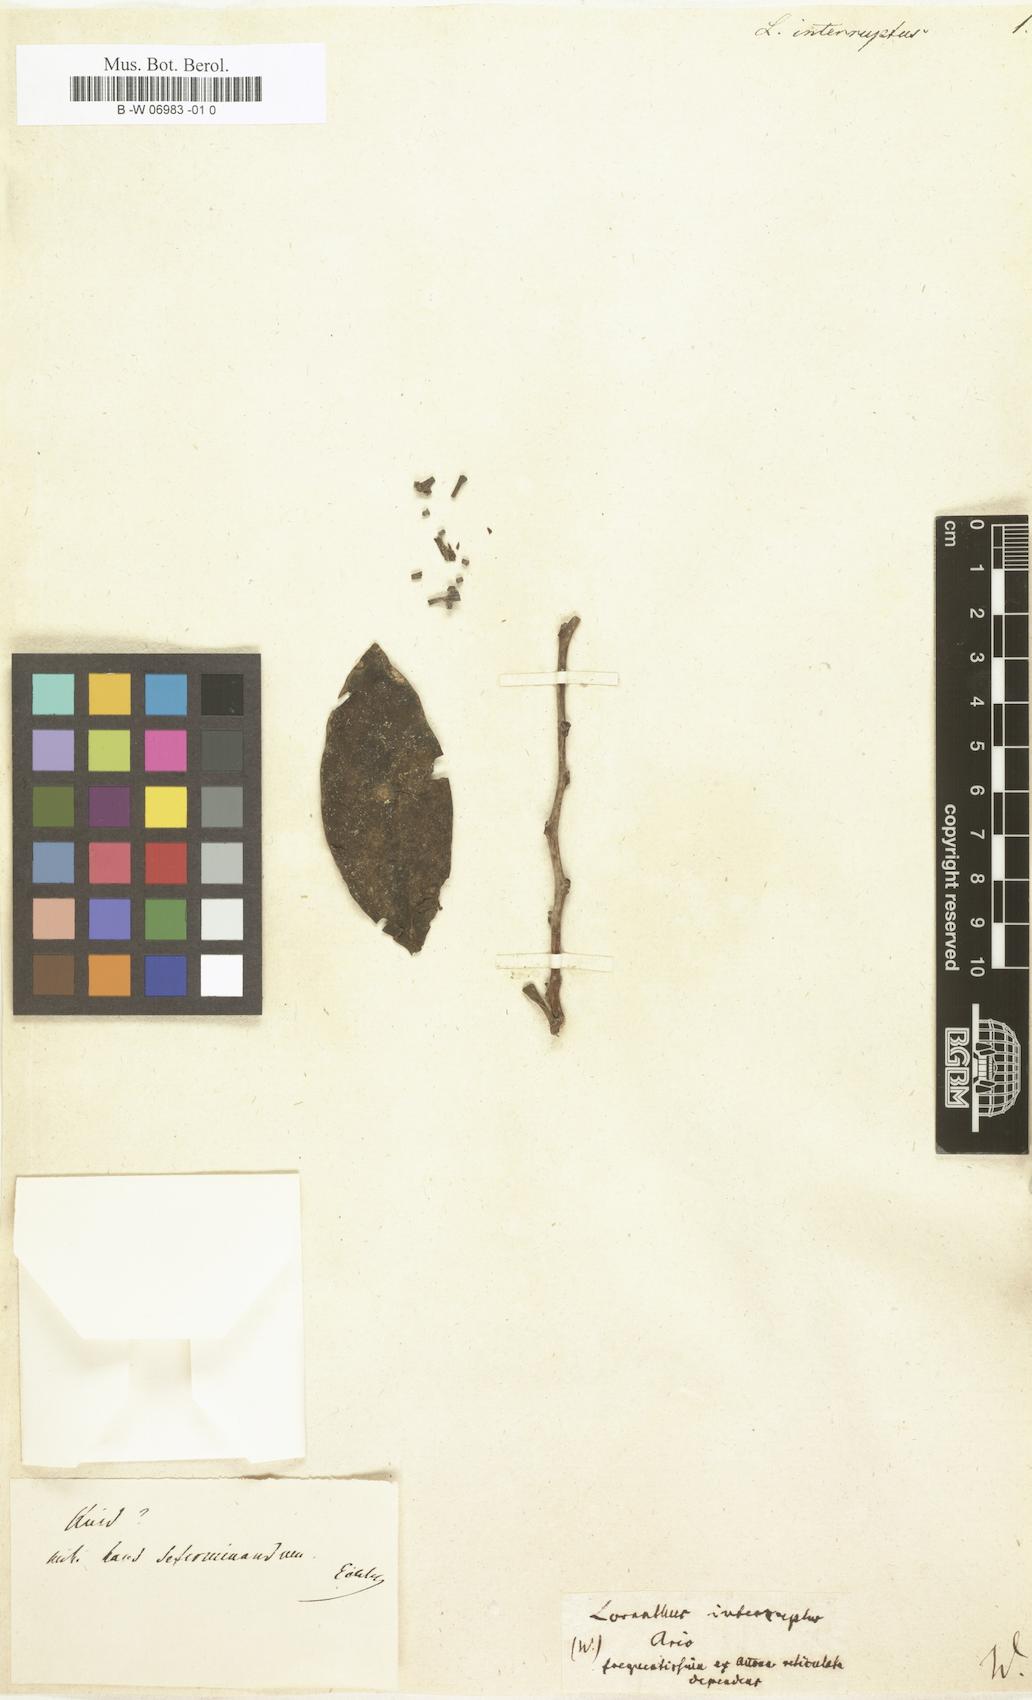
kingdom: Plantae
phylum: Tracheophyta
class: Magnoliopsida
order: Santalales
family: Loranthaceae
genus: Struthanthus
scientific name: Struthanthus interruptus
